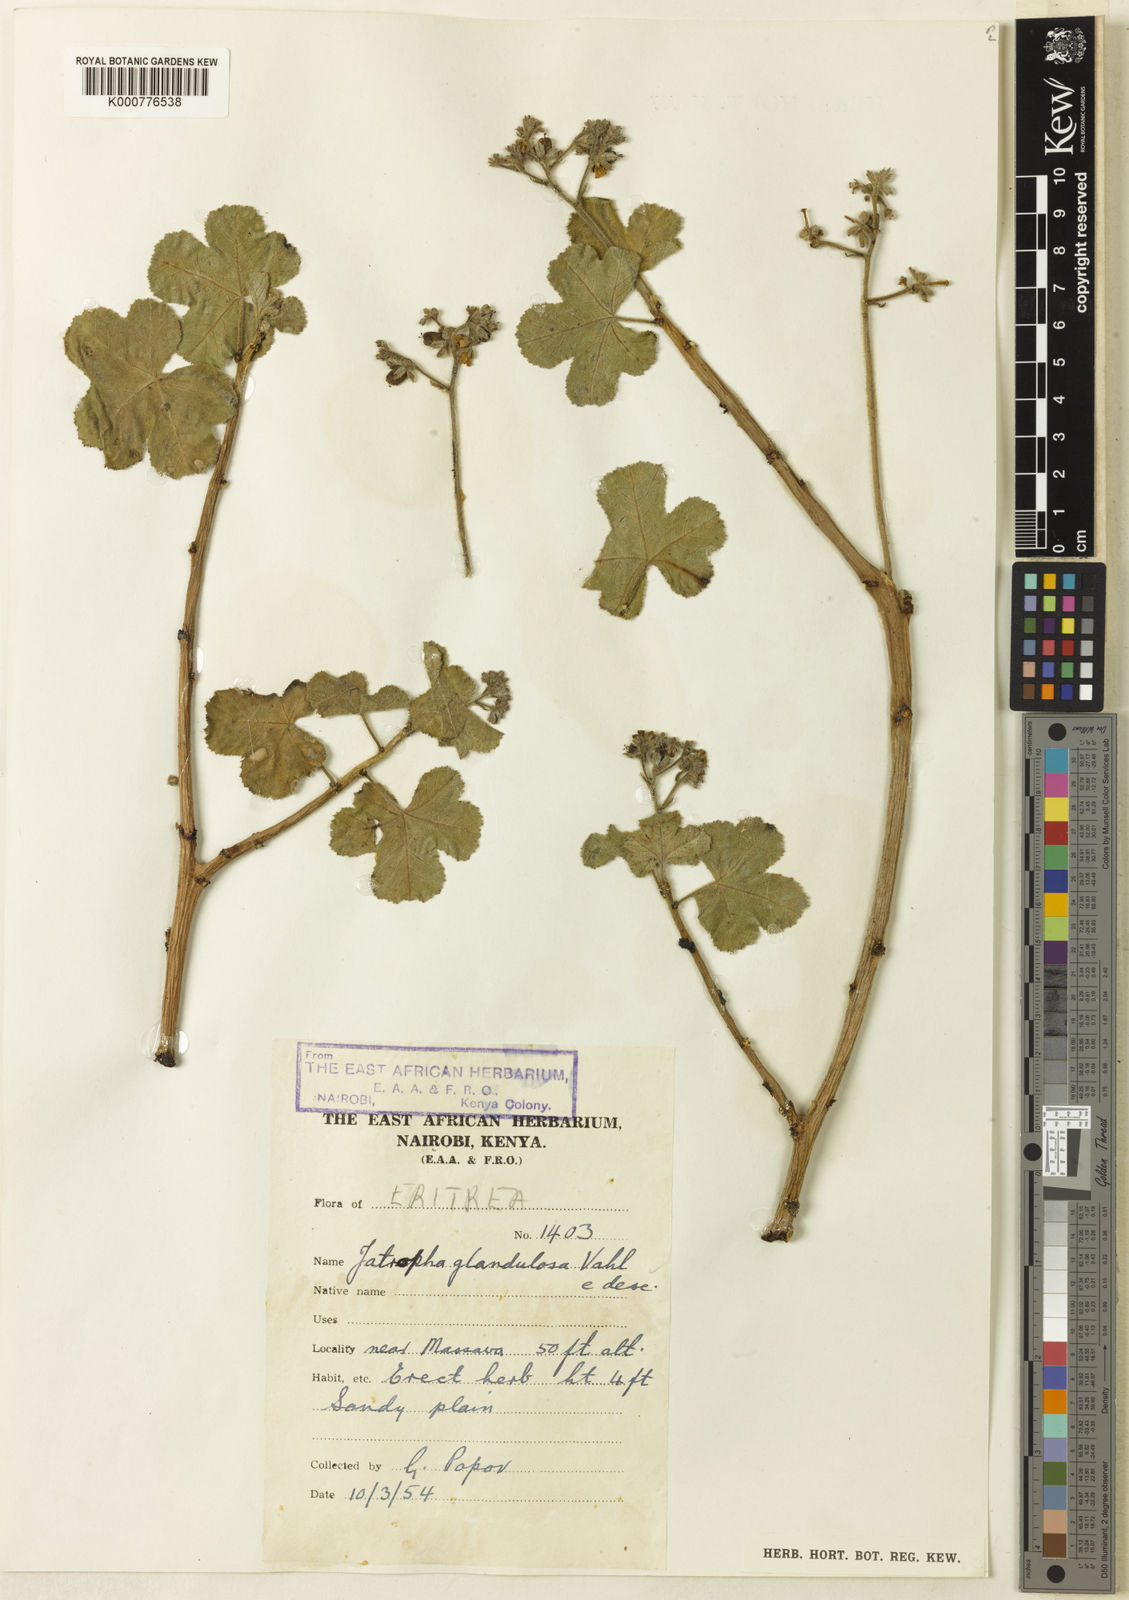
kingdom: Plantae
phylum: Tracheophyta
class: Magnoliopsida
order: Malpighiales
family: Euphorbiaceae
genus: Jatropha
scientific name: Jatropha pelargoniifolia
